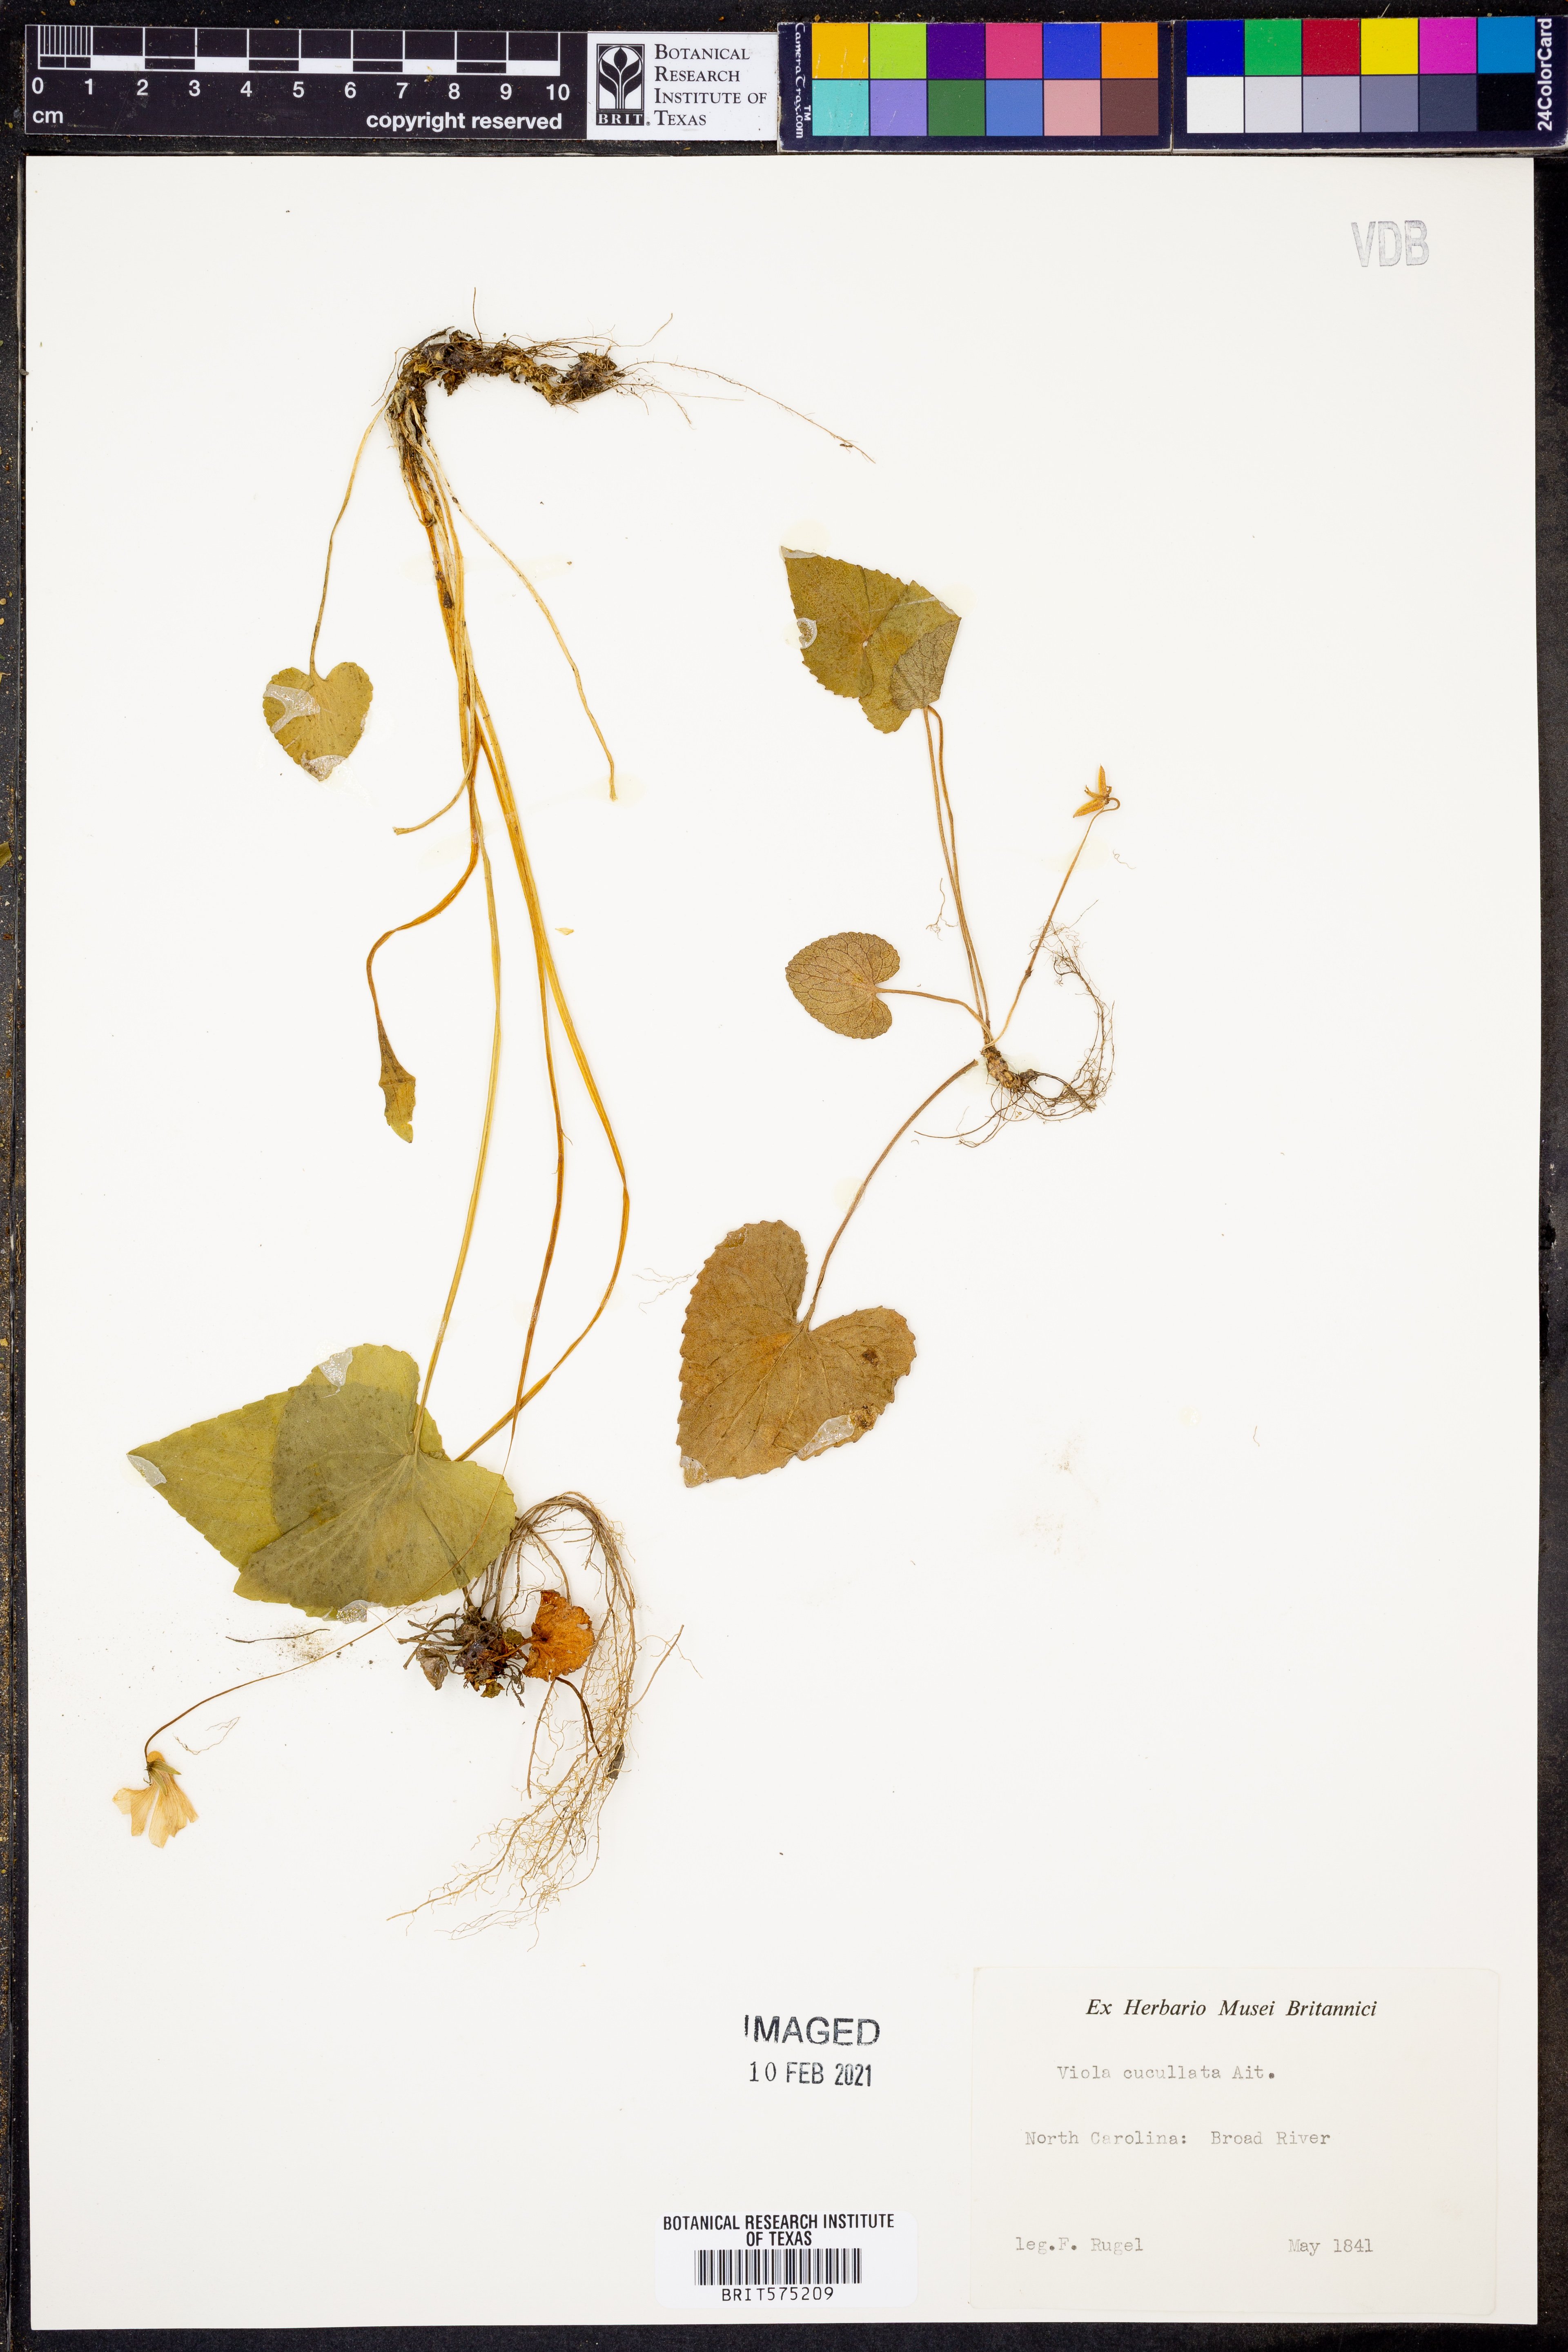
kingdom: Plantae
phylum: Tracheophyta
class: Magnoliopsida
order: Malpighiales
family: Violaceae
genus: Viola
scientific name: Viola cucullata
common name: Marsh blue violet
